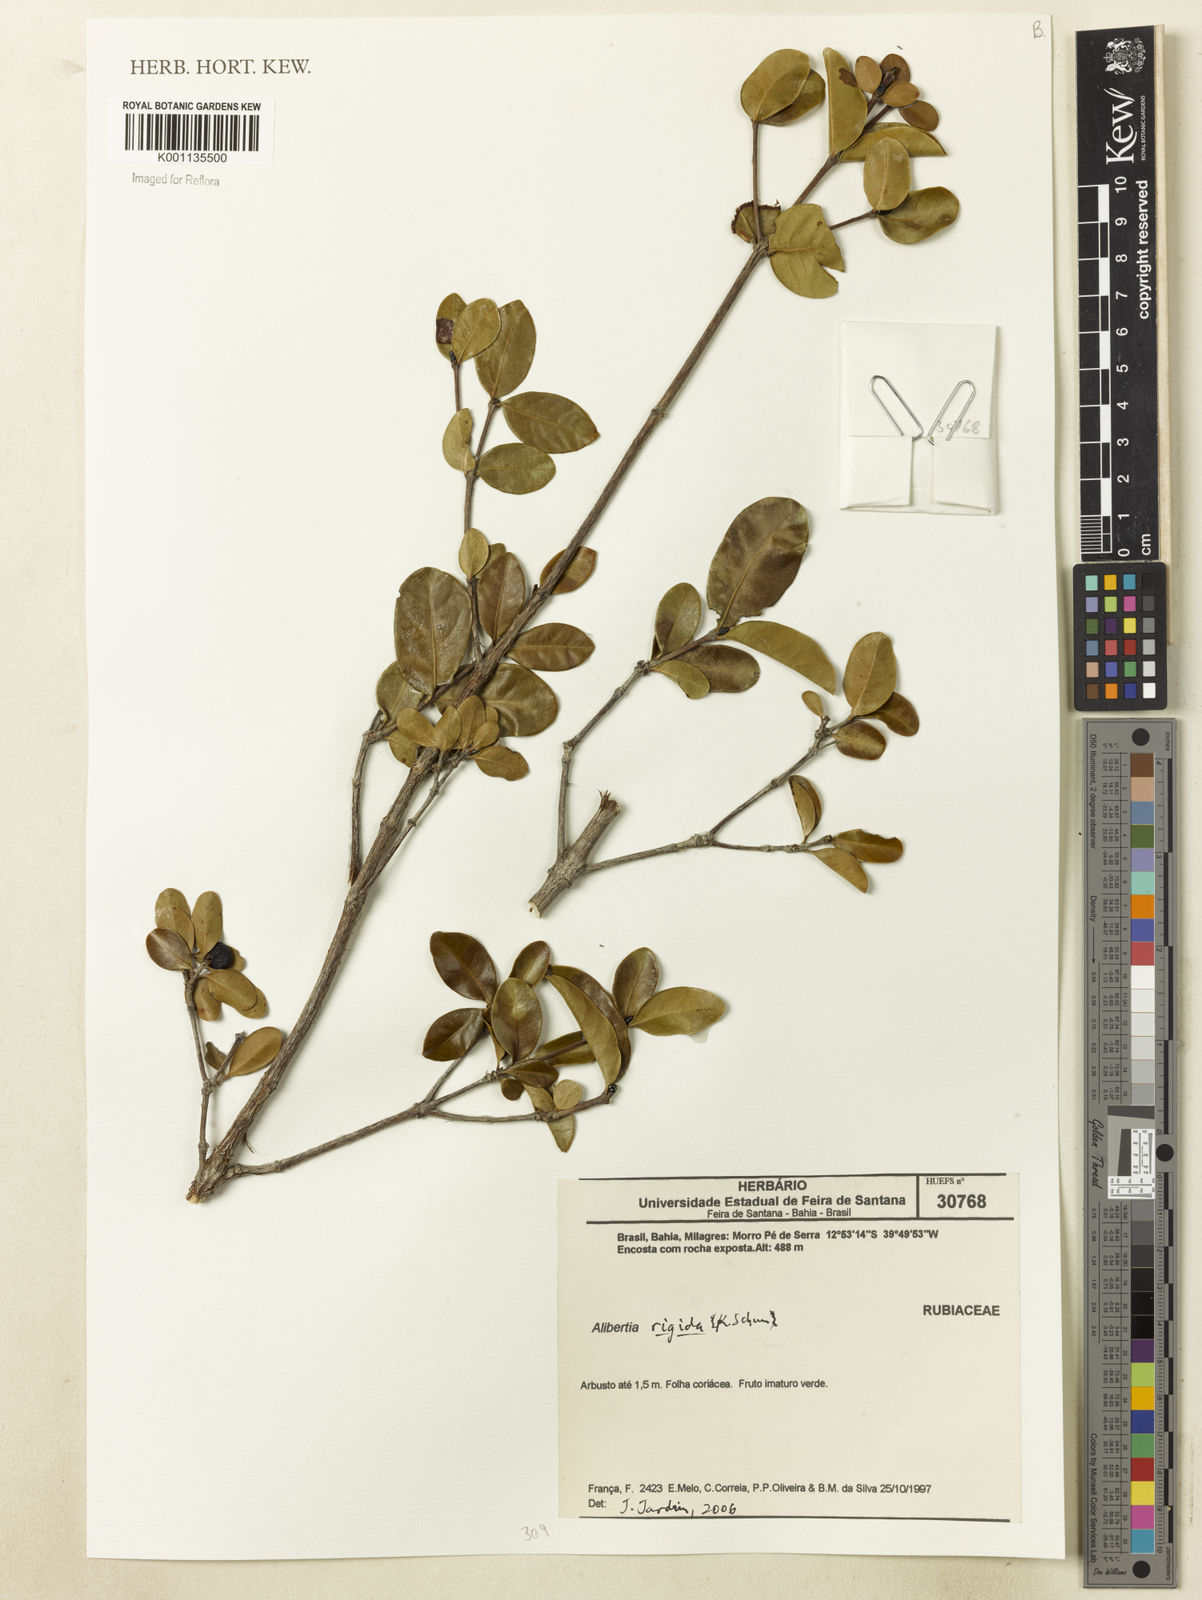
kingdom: Plantae
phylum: Tracheophyta
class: Magnoliopsida
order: Gentianales
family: Rubiaceae
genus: Cordiera
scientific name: Cordiera rigida
